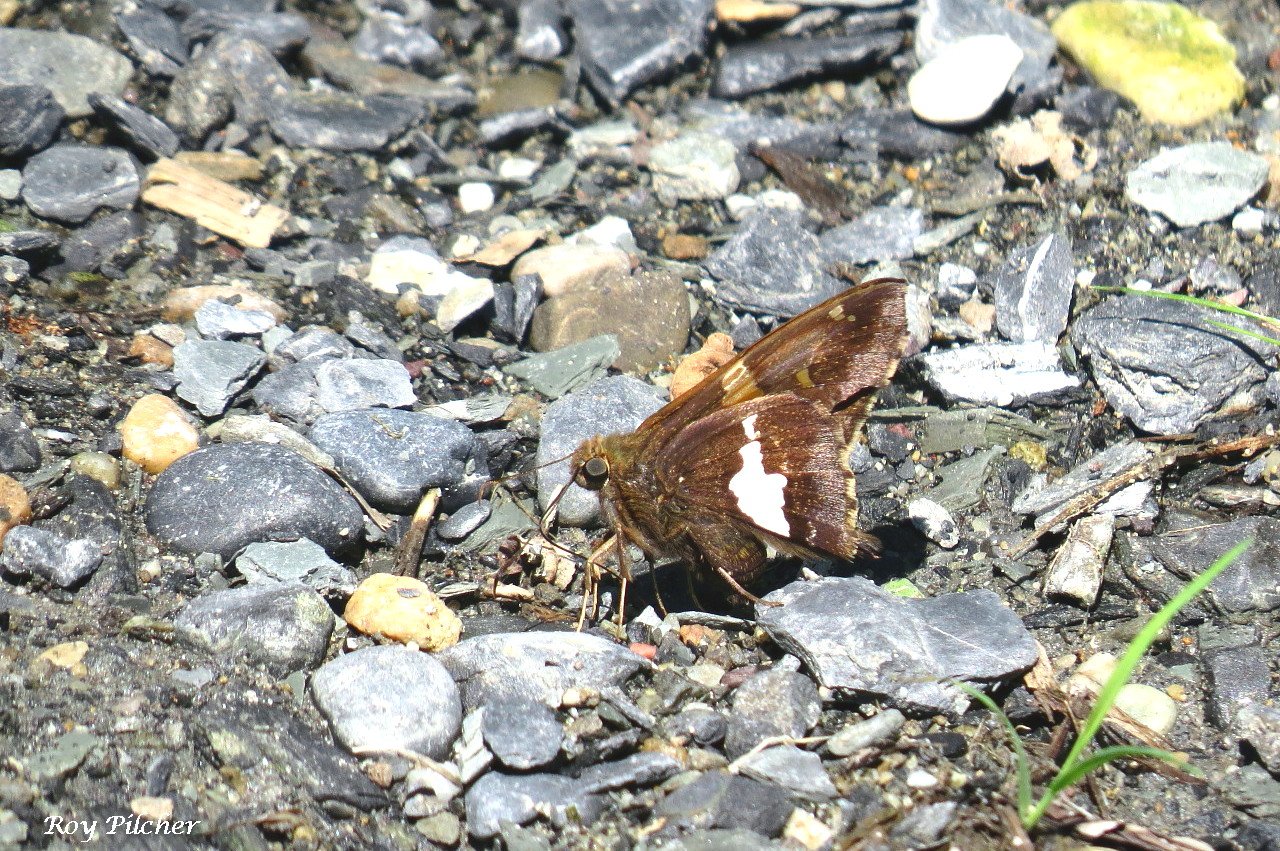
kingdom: Animalia
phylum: Arthropoda
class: Insecta
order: Lepidoptera
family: Hesperiidae
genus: Epargyreus
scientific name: Epargyreus clarus
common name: Silver-spotted Skipper
